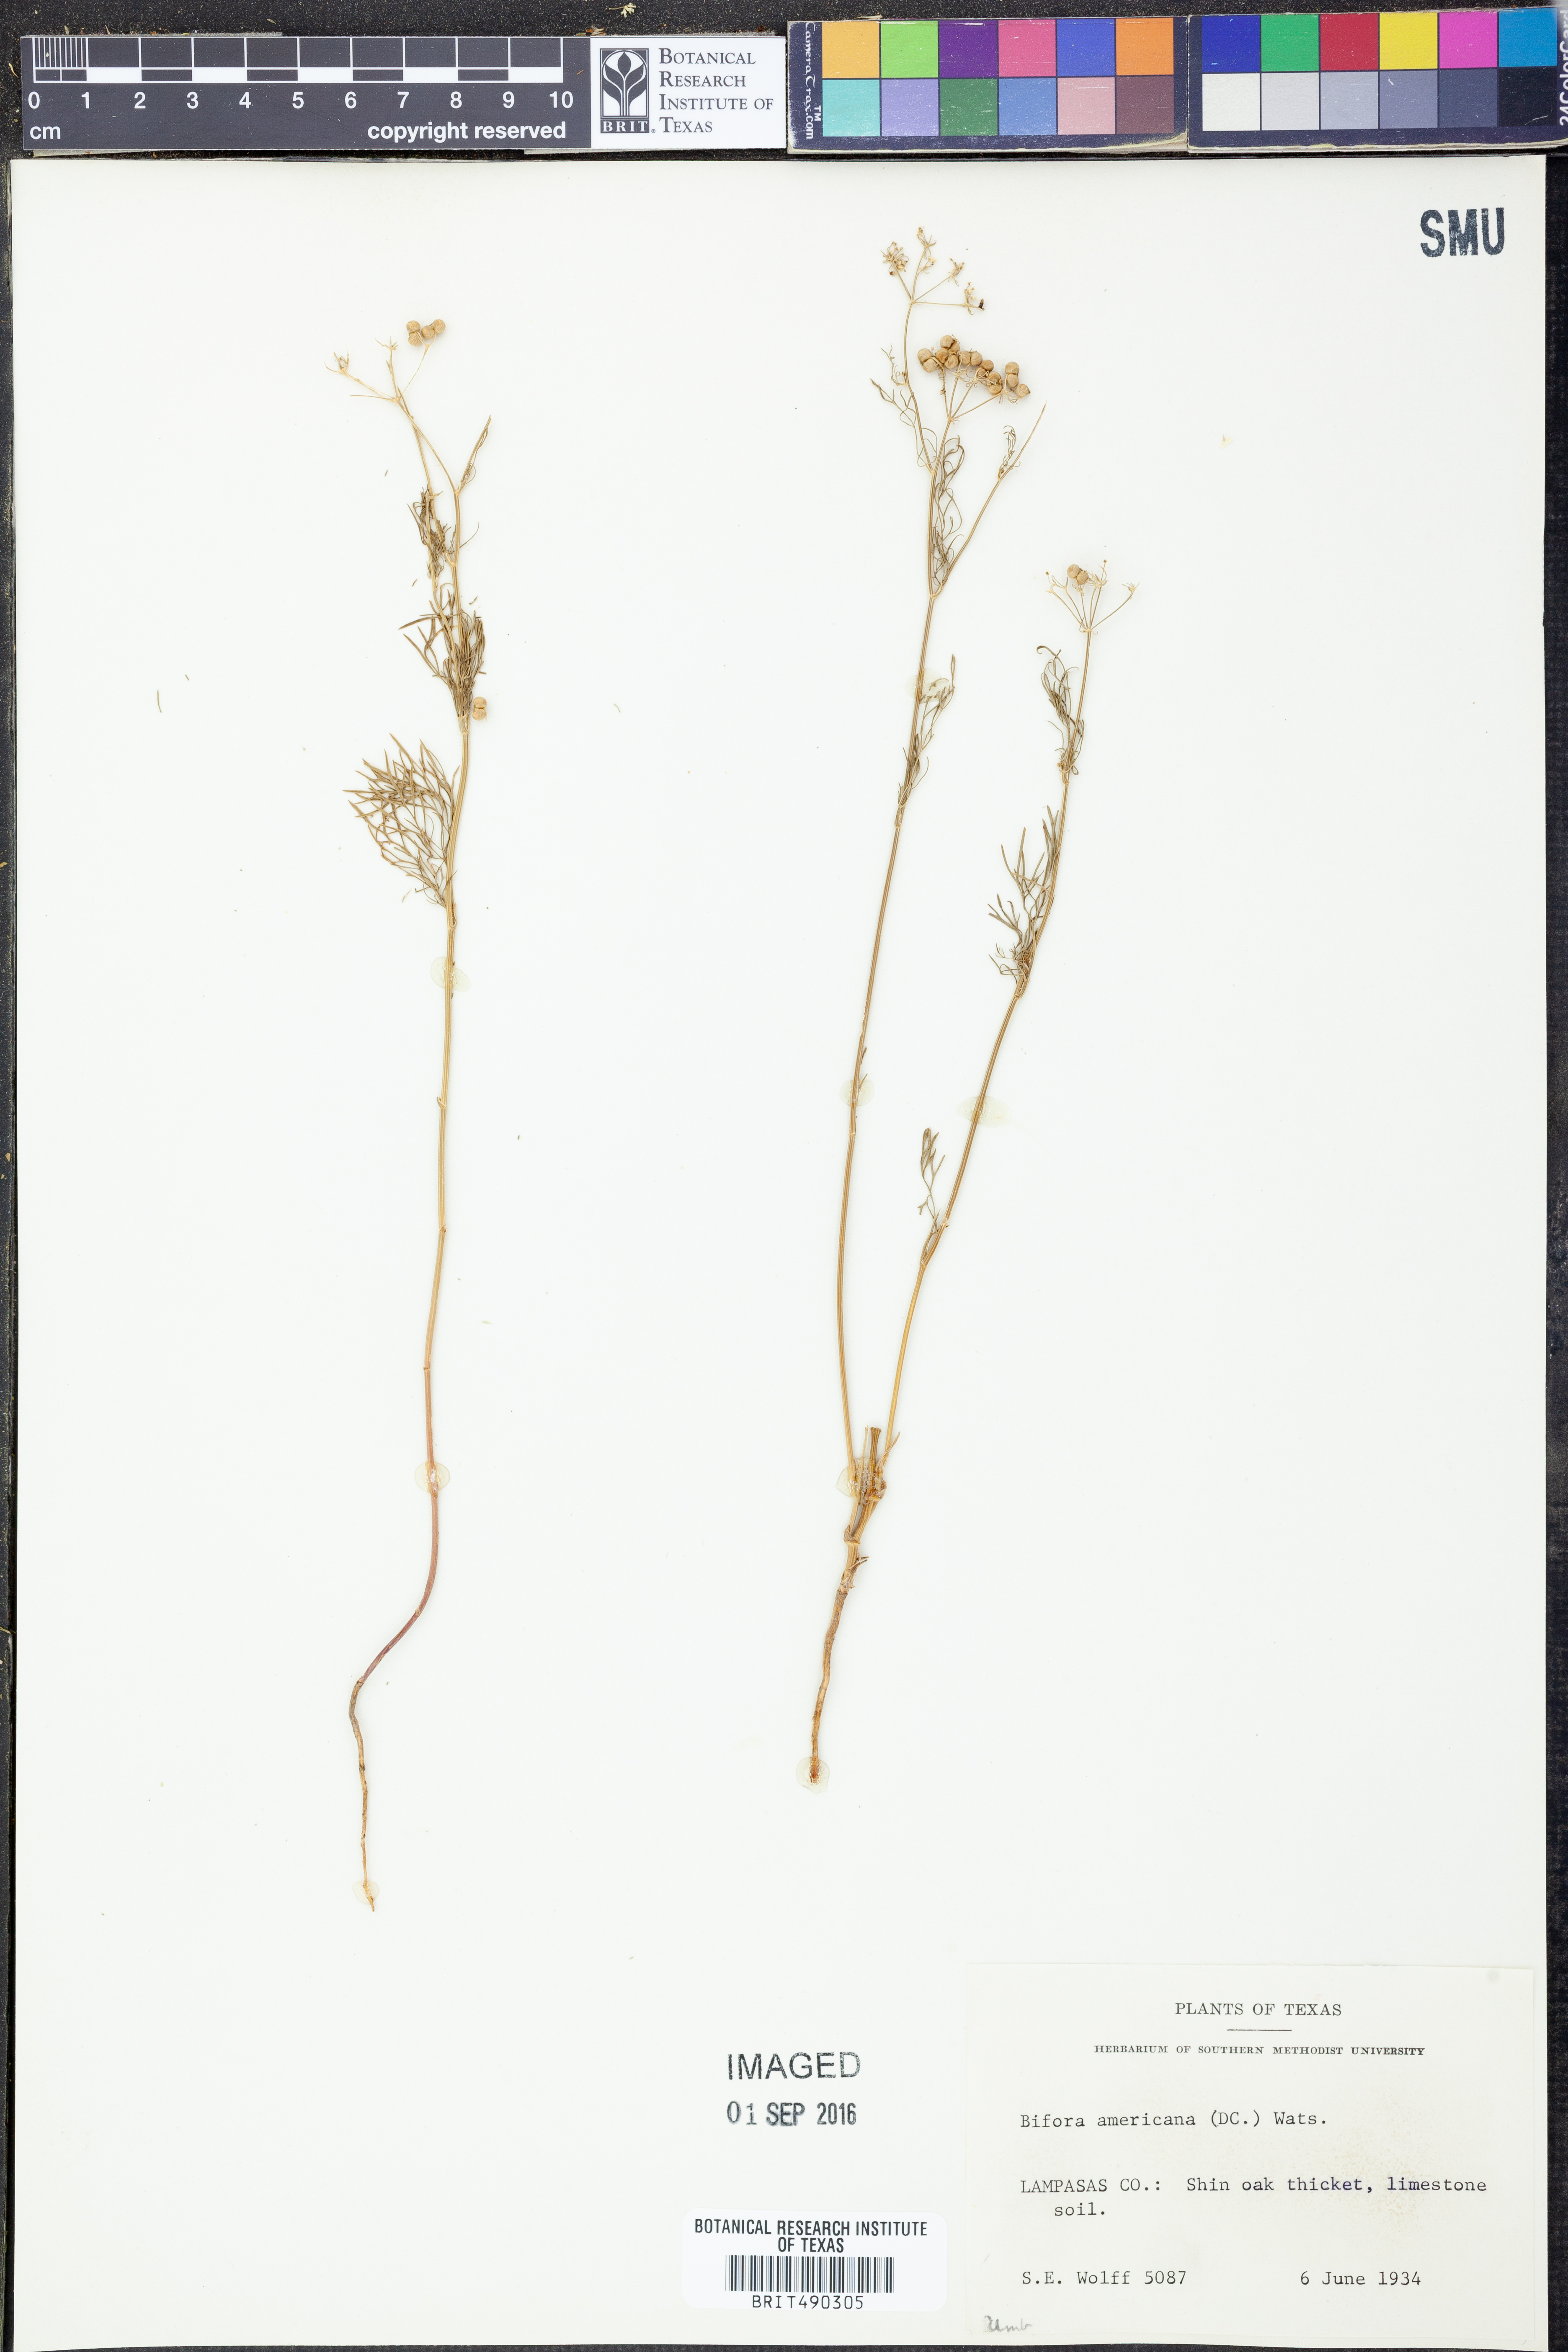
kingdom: Plantae
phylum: Tracheophyta
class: Magnoliopsida
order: Apiales
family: Apiaceae
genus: Atrema
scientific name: Atrema americanum
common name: Prairie-bishop
